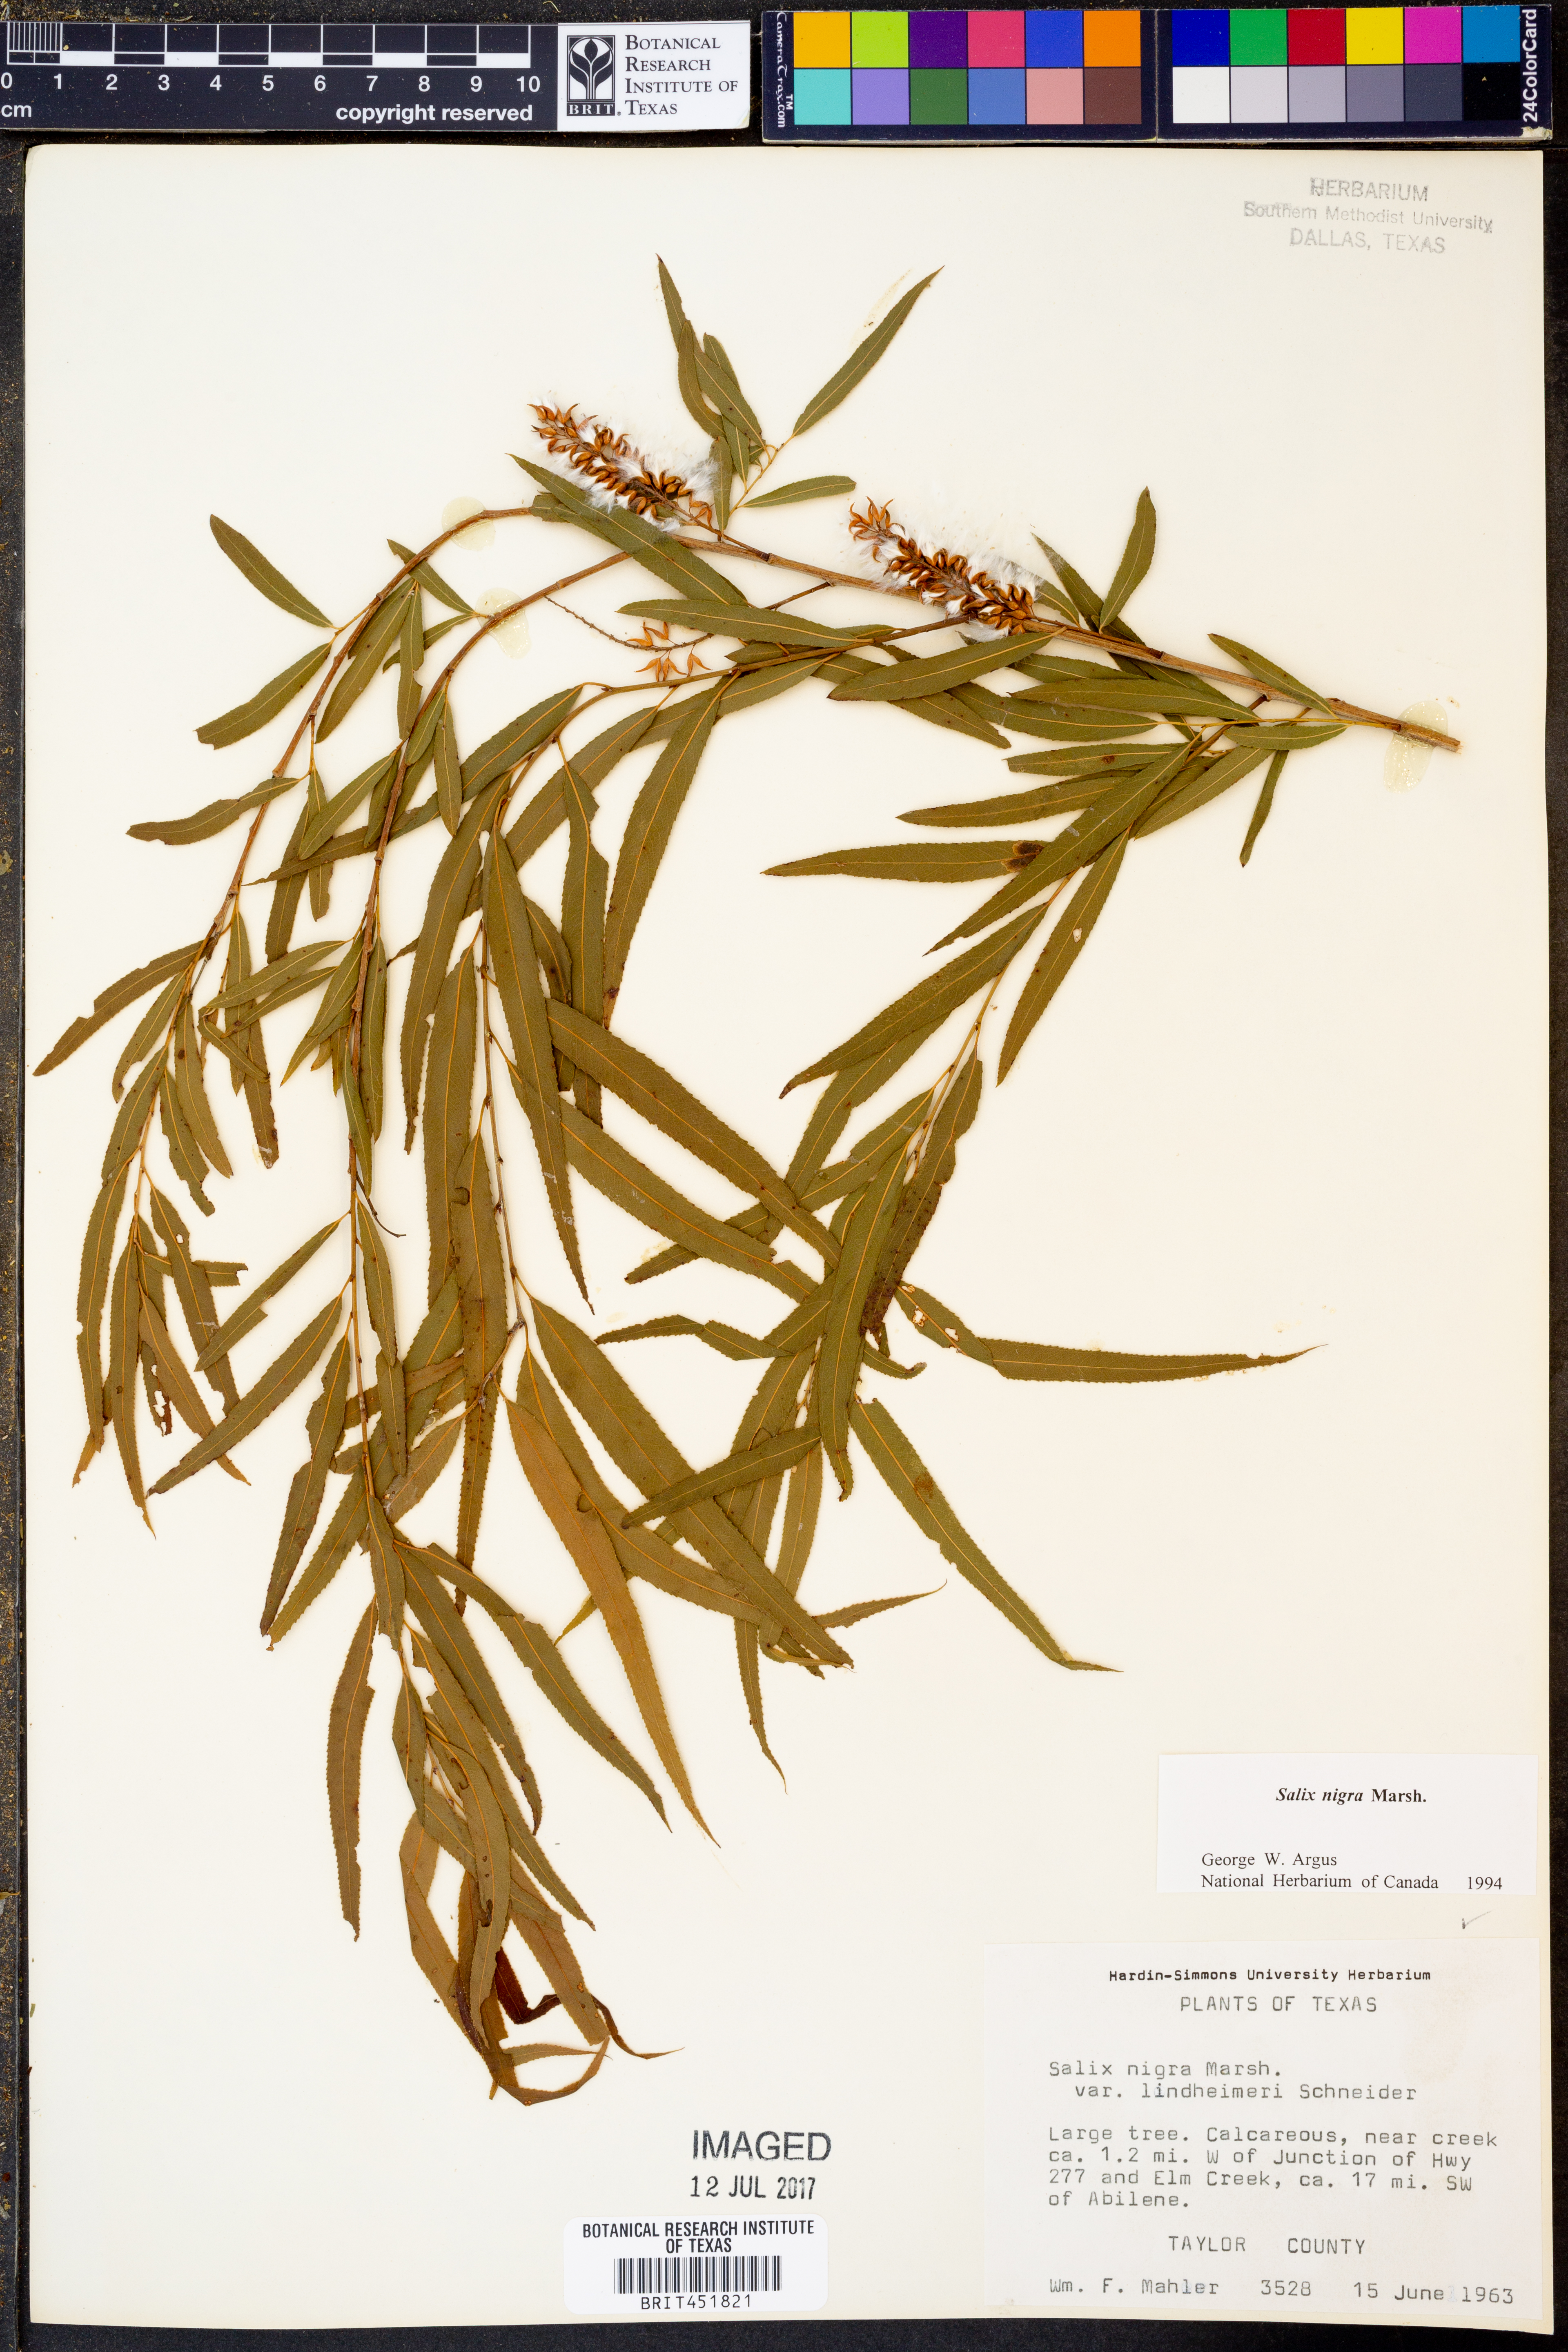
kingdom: Plantae
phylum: Tracheophyta
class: Magnoliopsida
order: Malpighiales
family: Salicaceae
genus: Salix
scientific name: Salix nigra
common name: Black willow
